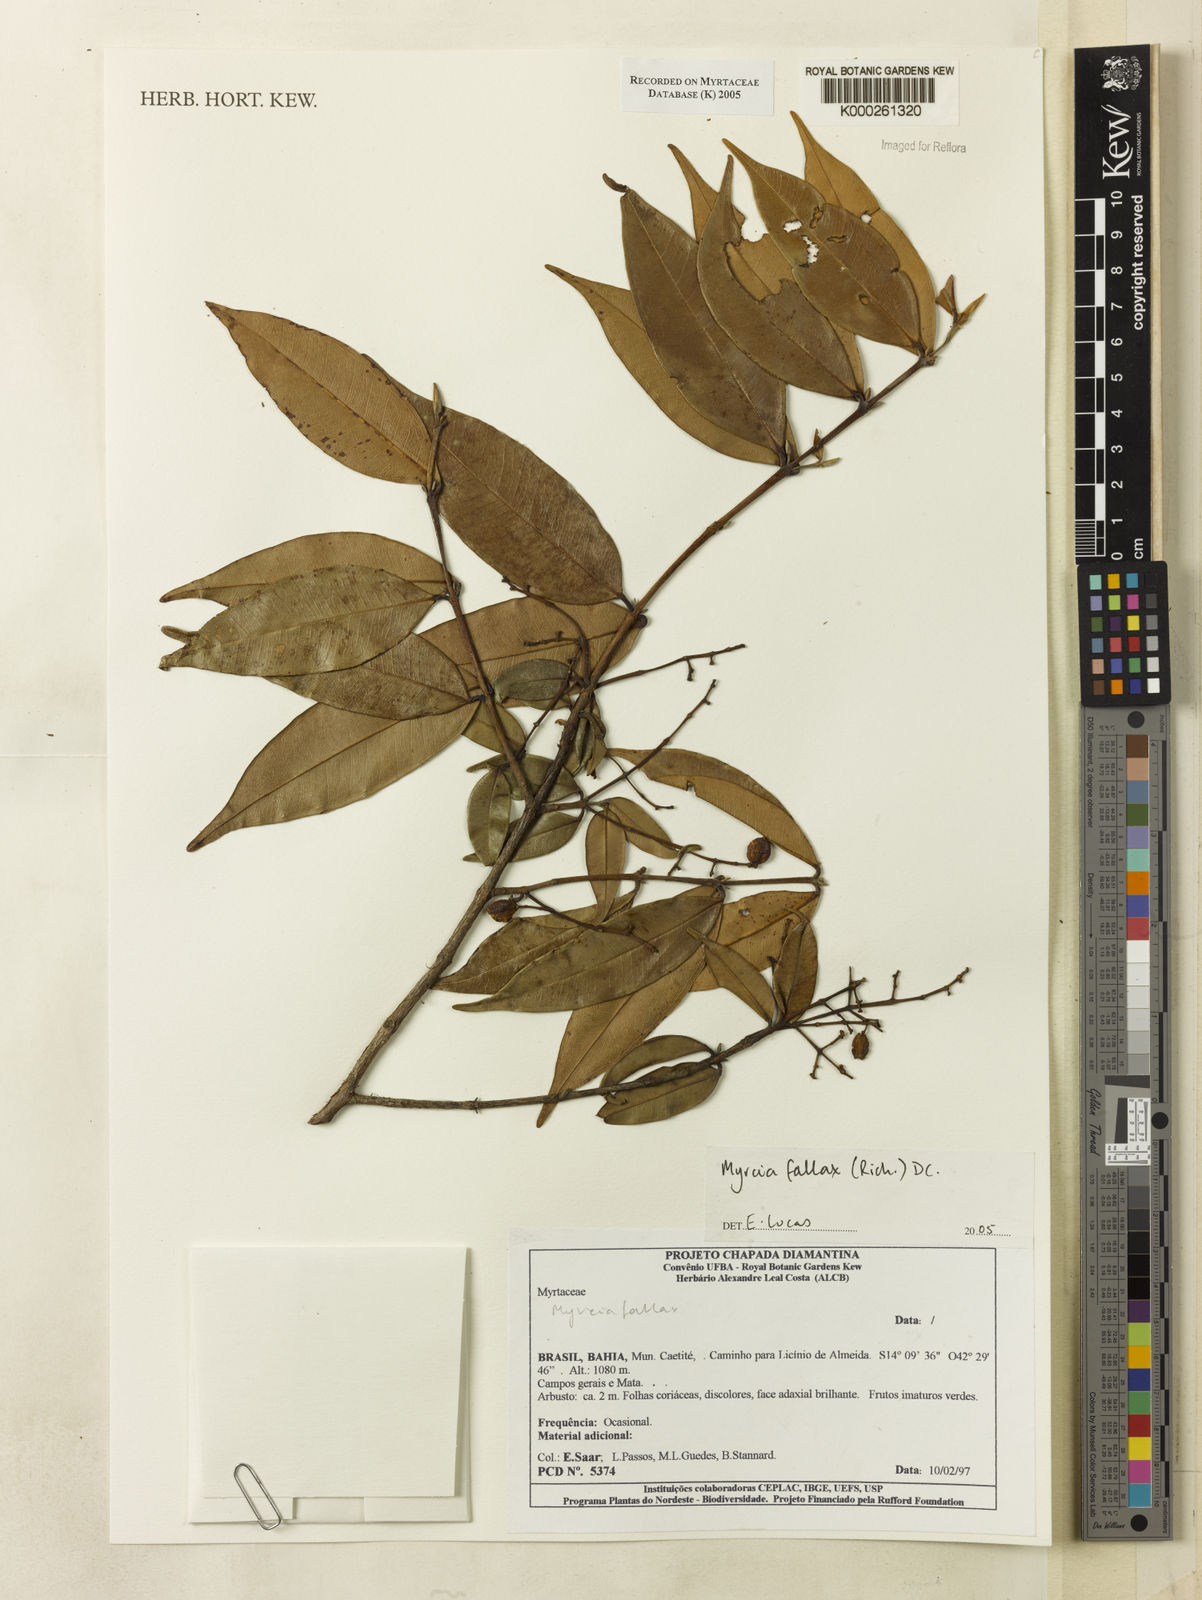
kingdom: Plantae
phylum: Tracheophyta
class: Magnoliopsida
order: Myrtales
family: Myrtaceae
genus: Myrcia
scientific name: Myrcia splendens
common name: Surinam cherry
